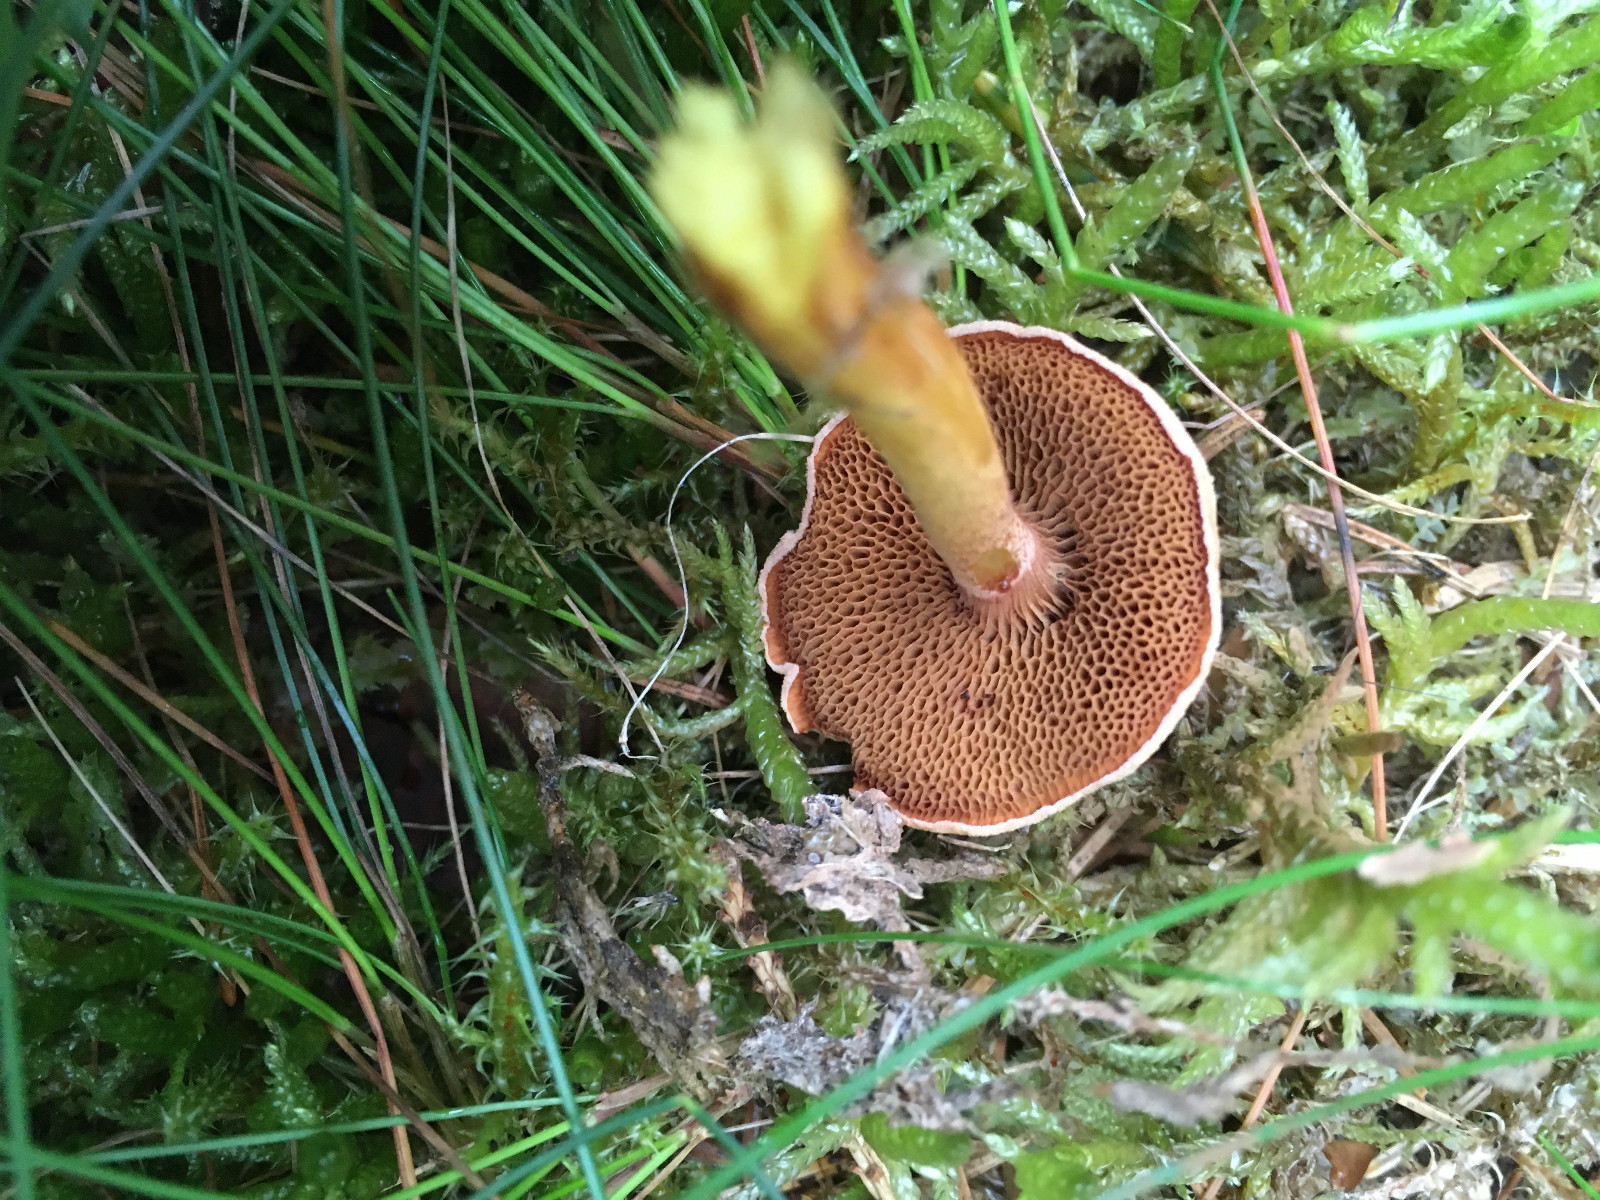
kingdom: Fungi
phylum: Basidiomycota
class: Agaricomycetes
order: Boletales
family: Boletaceae
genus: Chalciporus
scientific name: Chalciporus piperatus
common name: peberrørhat
